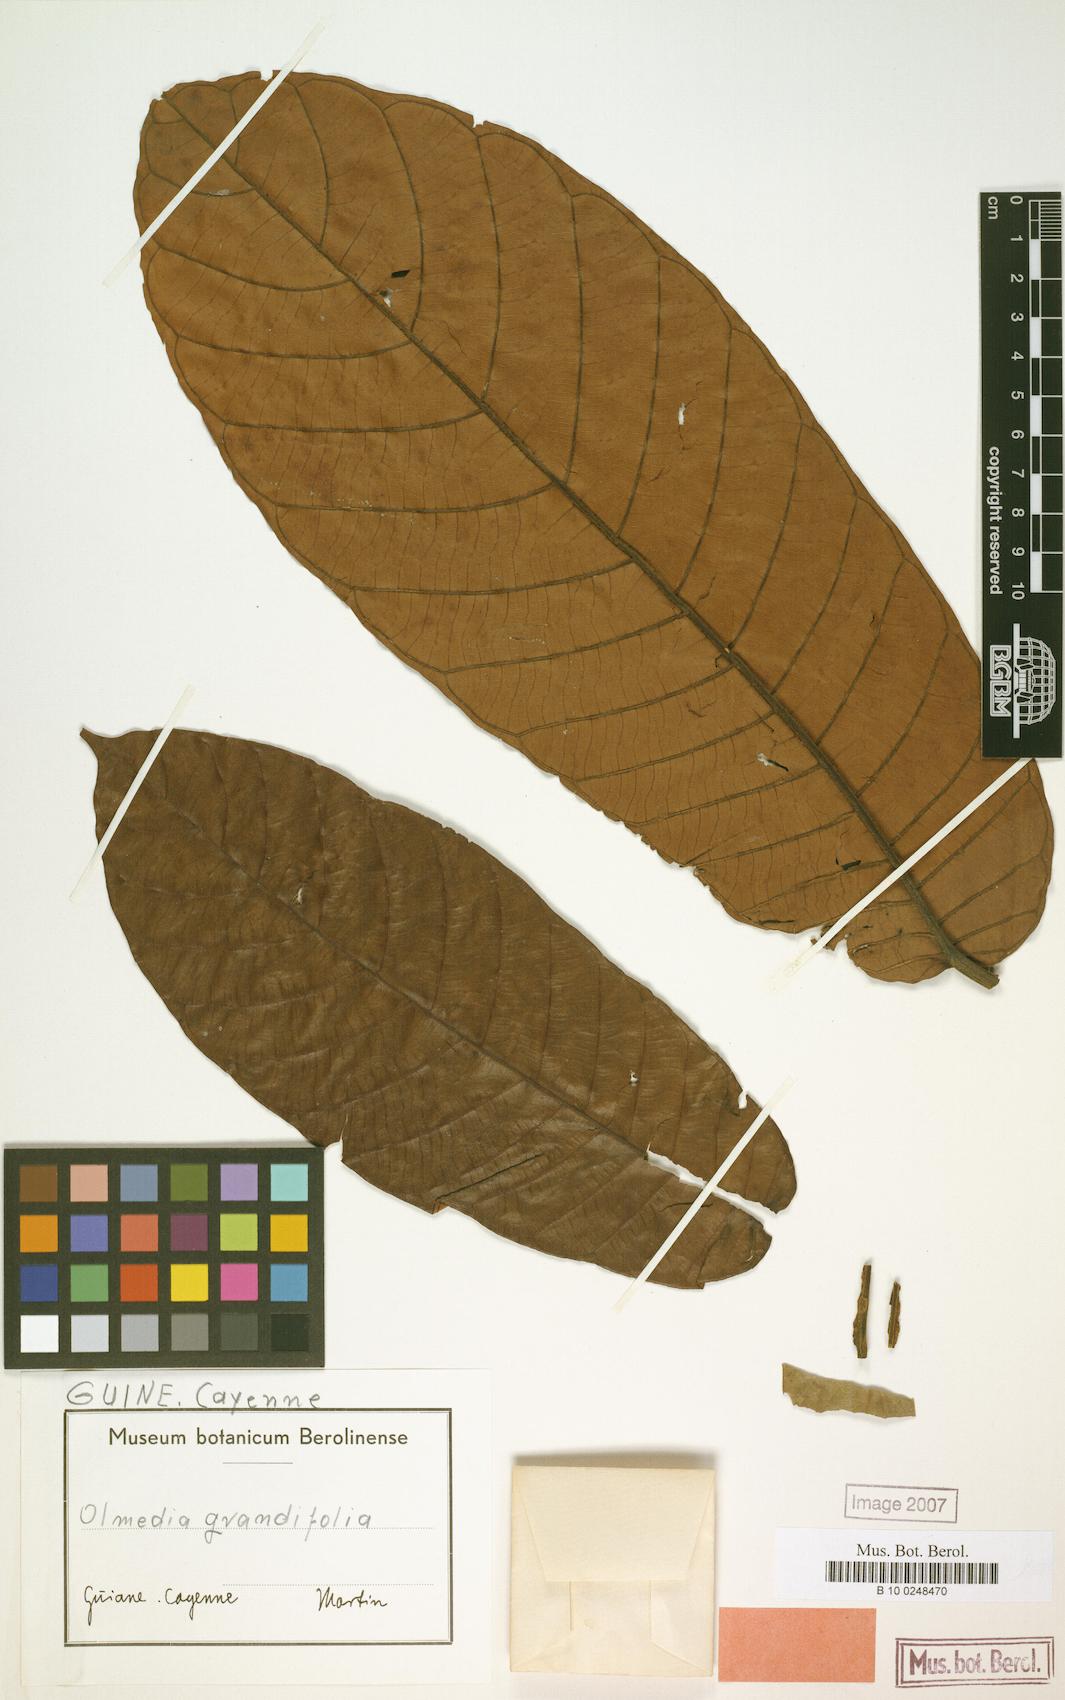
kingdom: Plantae
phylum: Tracheophyta
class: Magnoliopsida
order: Rosales
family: Moraceae
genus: Perebea
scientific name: Perebea guianensis
